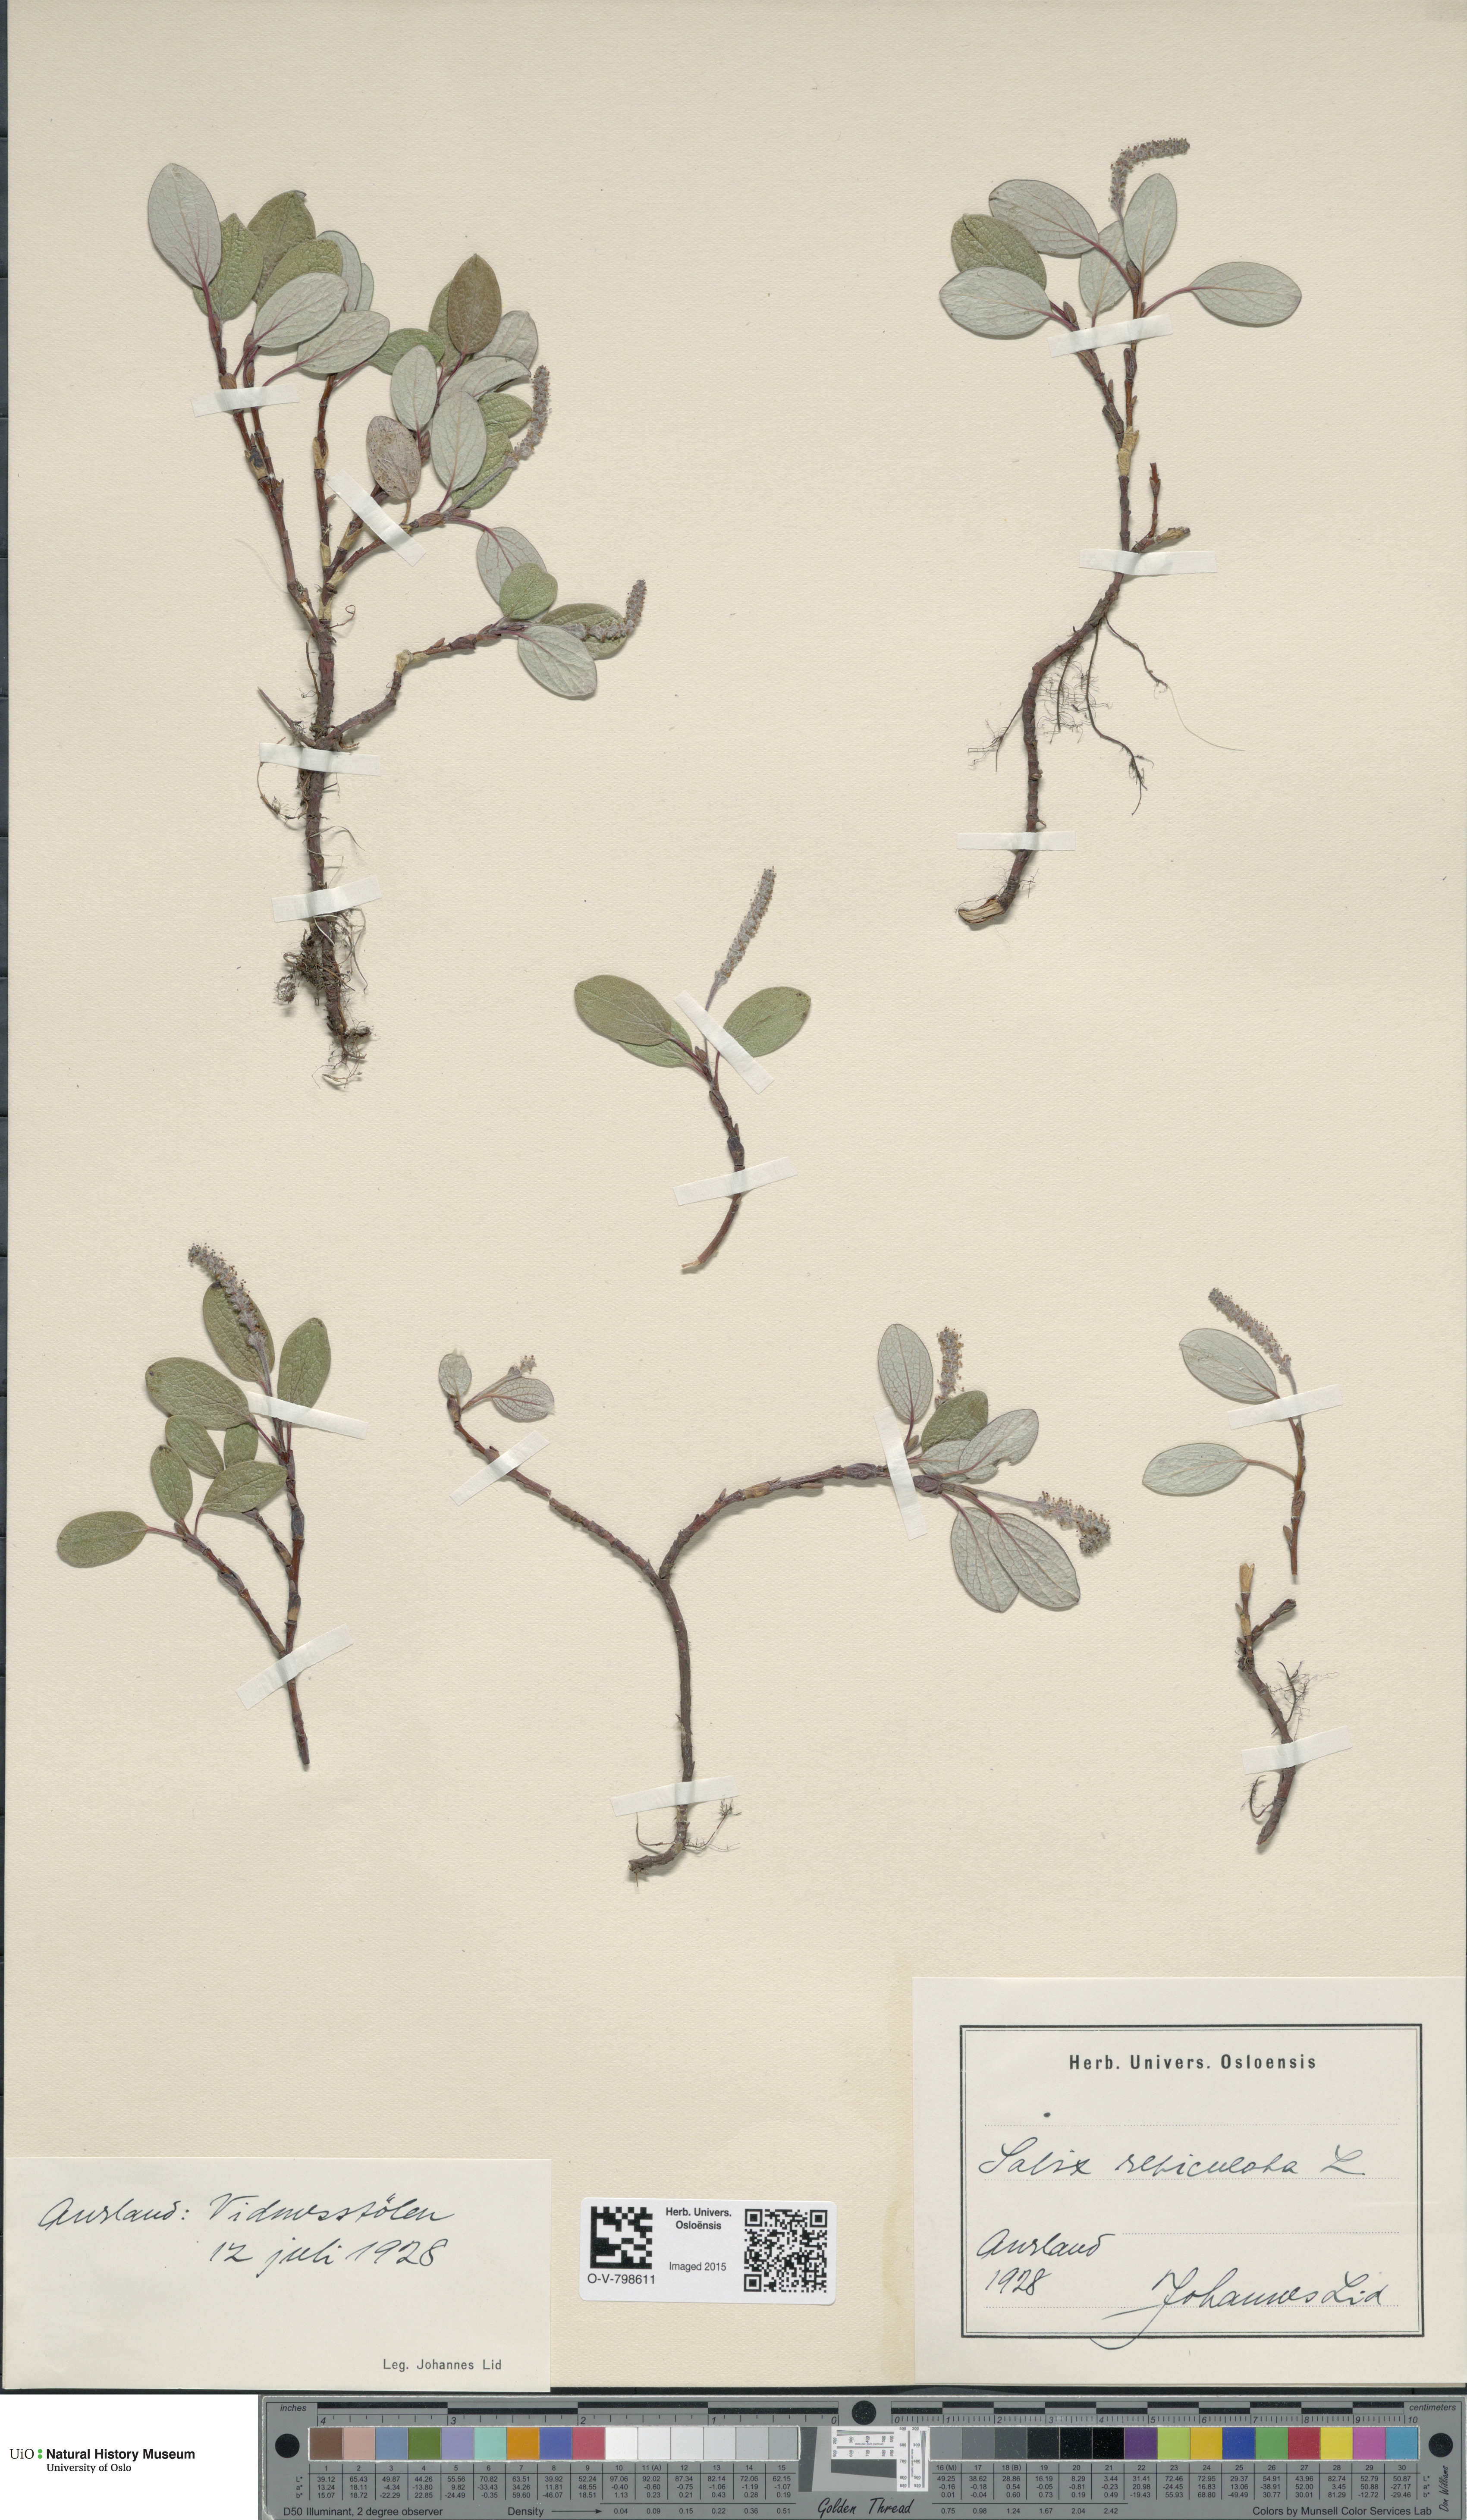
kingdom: Plantae
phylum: Tracheophyta
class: Magnoliopsida
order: Malpighiales
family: Salicaceae
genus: Salix
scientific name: Salix reticulata
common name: Net-leaved willow
